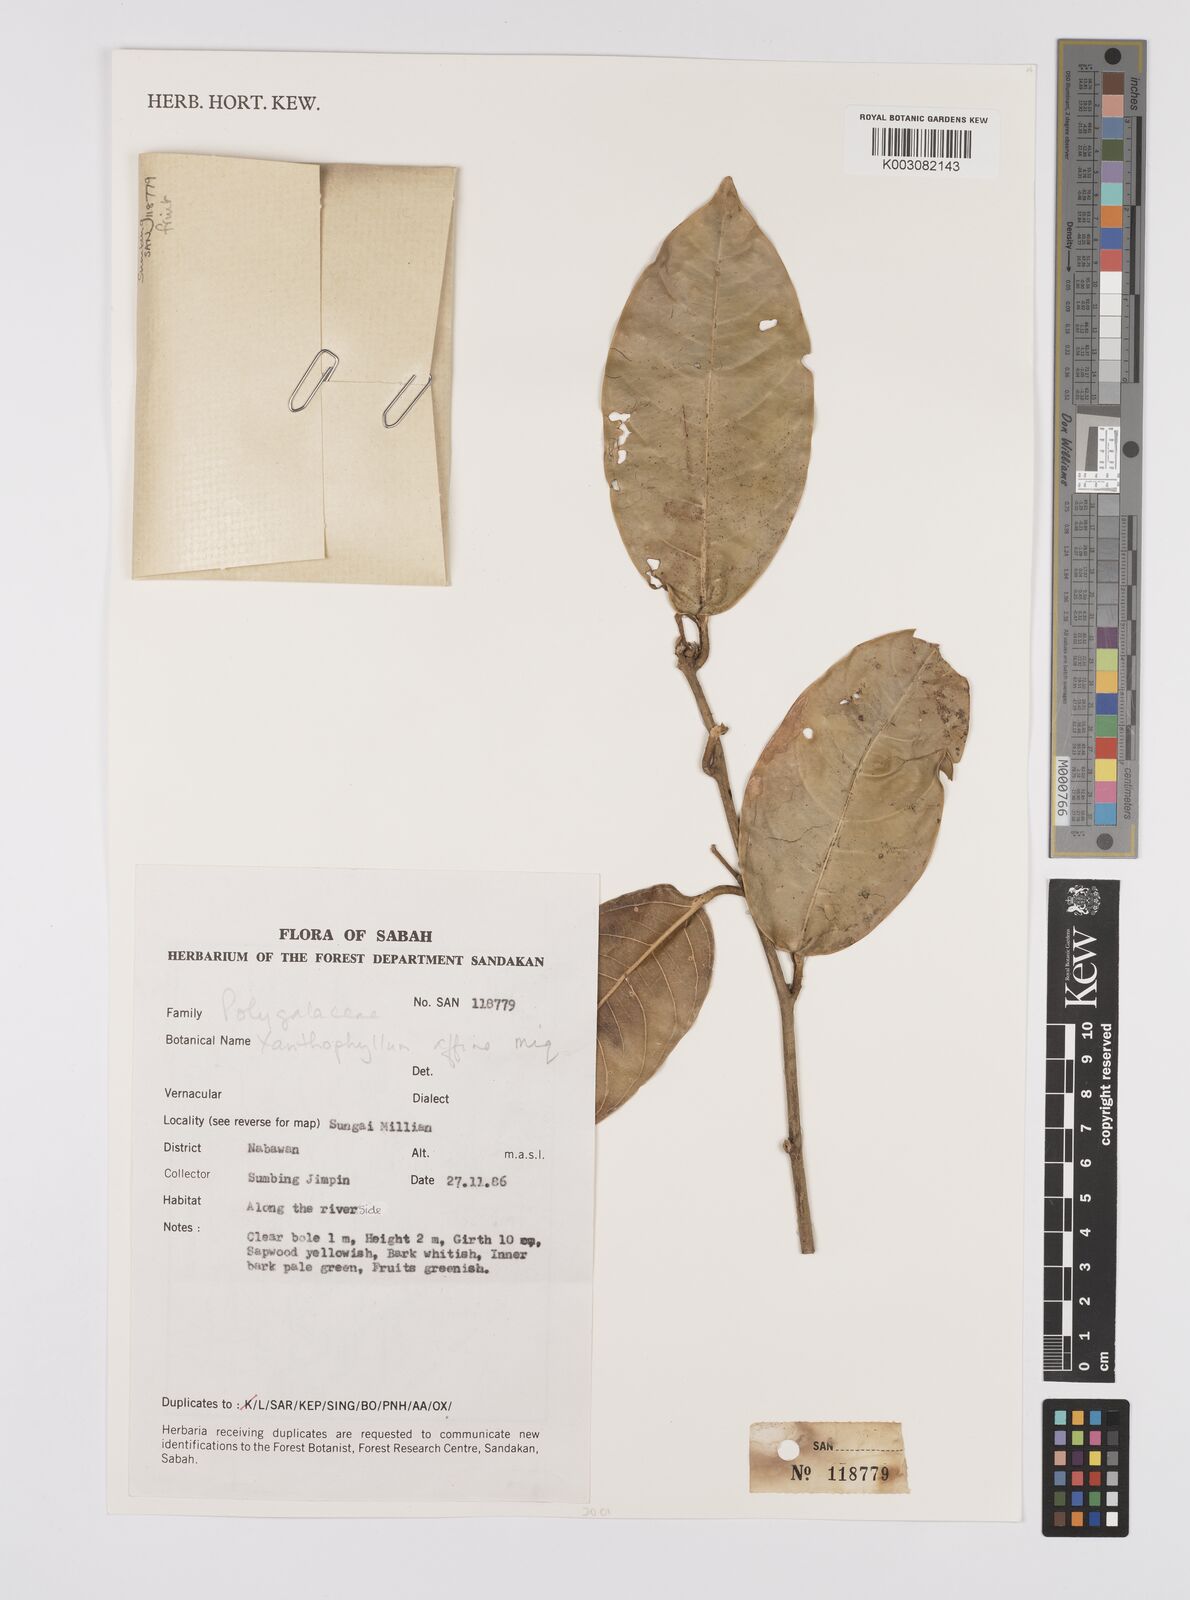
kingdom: Plantae
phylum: Tracheophyta
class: Magnoliopsida
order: Fabales
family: Polygalaceae
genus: Xanthophyllum
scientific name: Xanthophyllum flavescens
